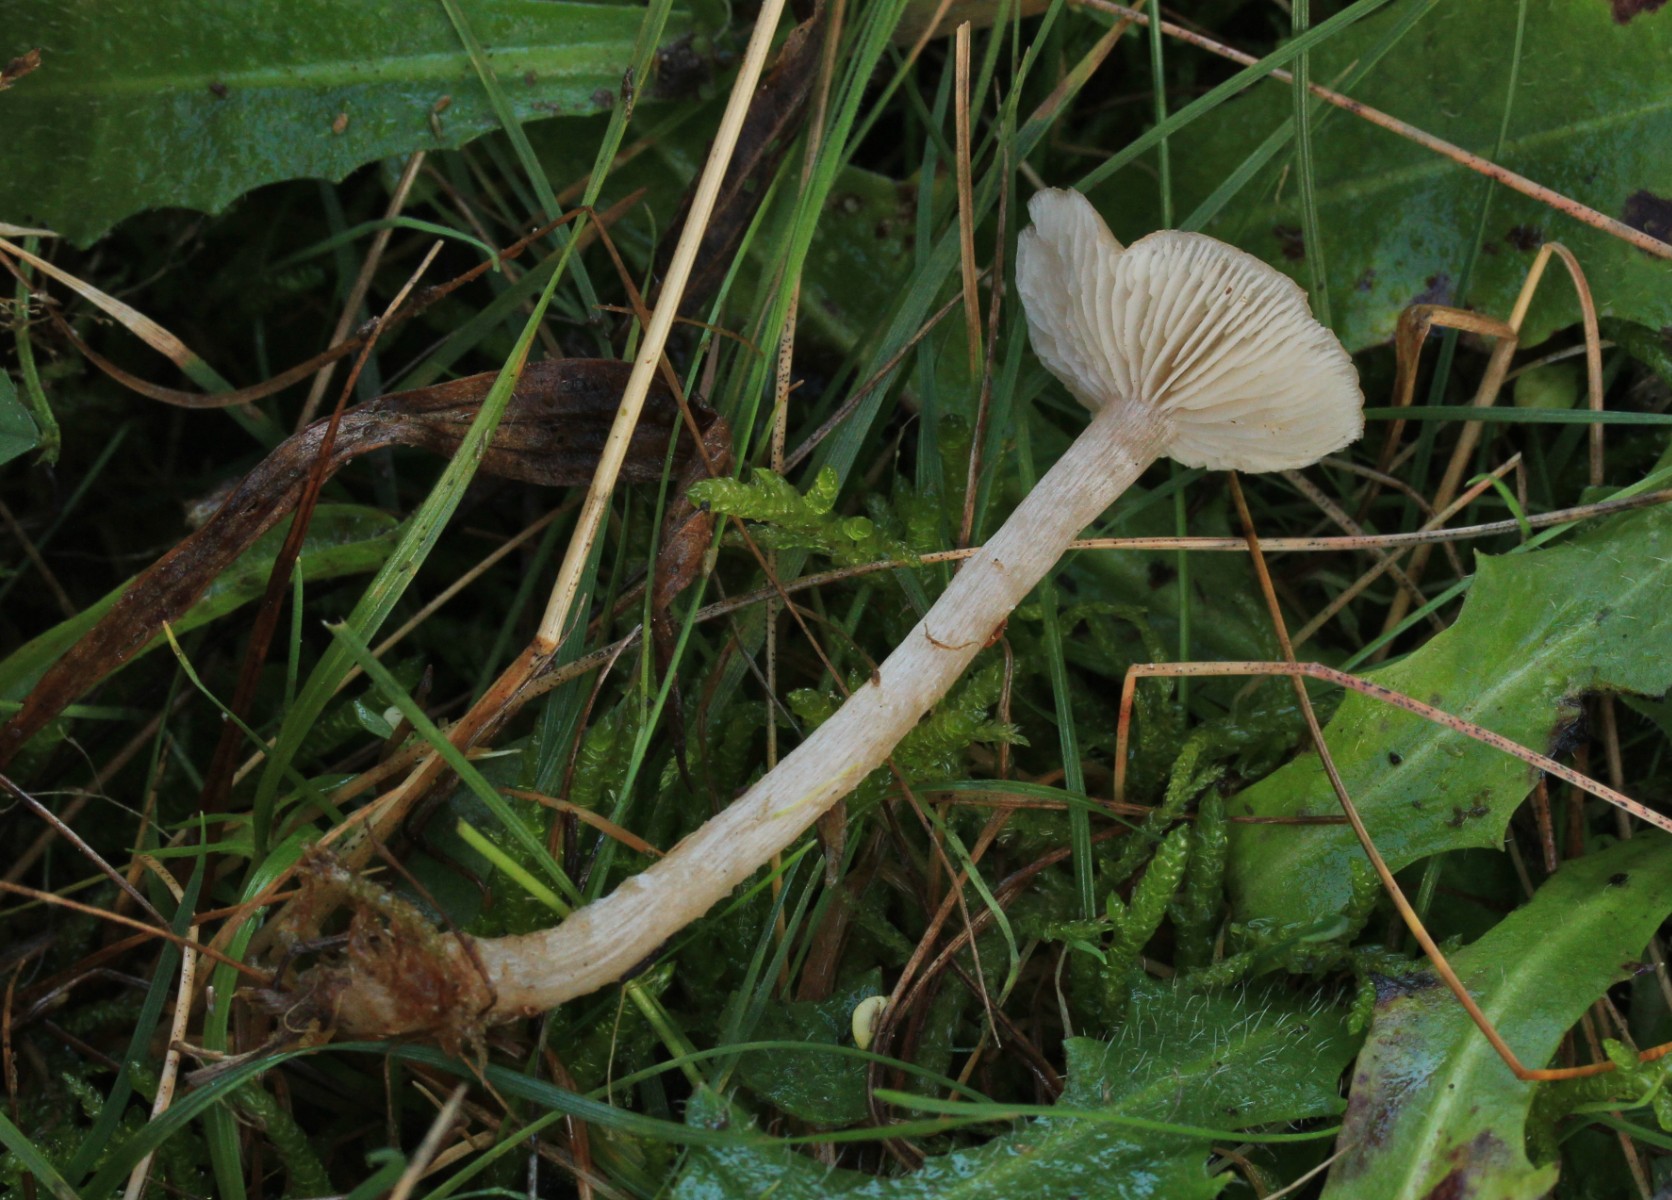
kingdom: Fungi
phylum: Basidiomycota
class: Agaricomycetes
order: Agaricales
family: Tricholomataceae
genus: Clitocybe
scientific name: Clitocybe fragrans
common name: vellugtende tragthat
